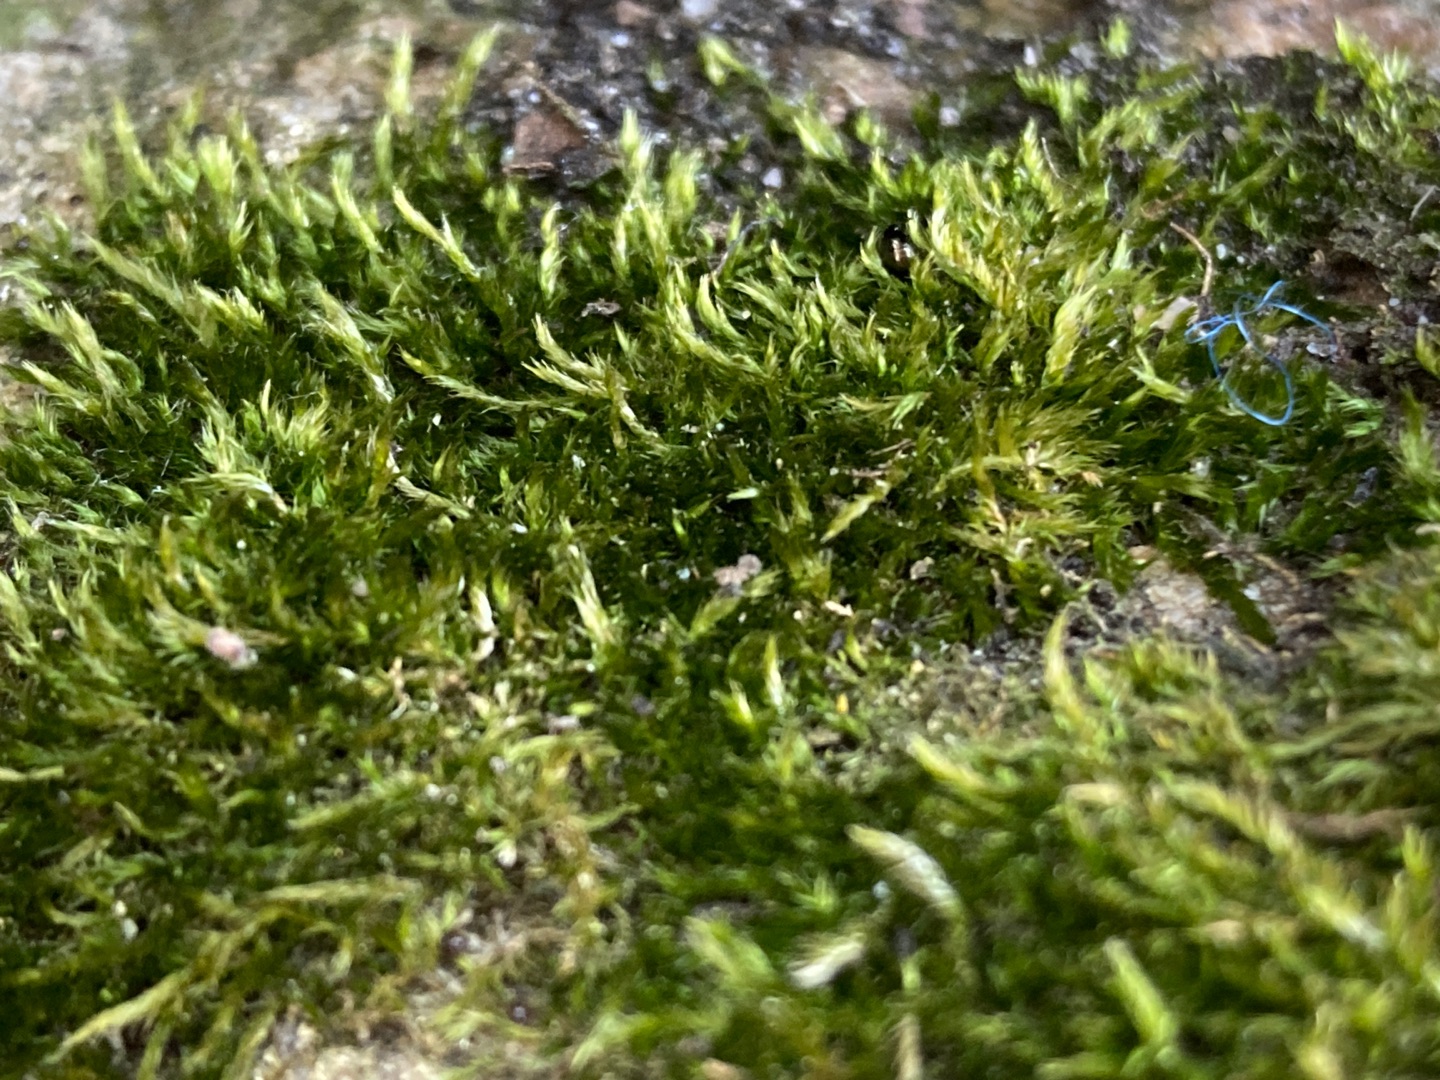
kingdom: Plantae
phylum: Bryophyta
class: Bryopsida
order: Hypnales
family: Hypnaceae
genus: Hypnum
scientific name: Hypnum
